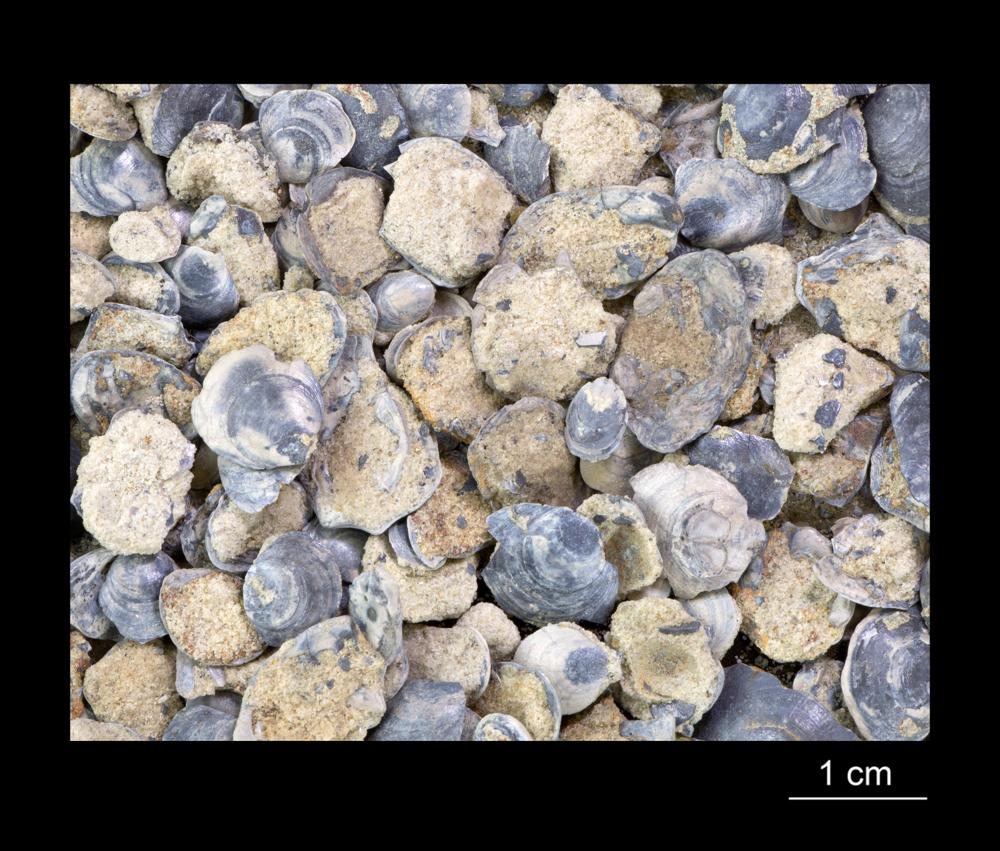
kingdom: Animalia
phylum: Brachiopoda
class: Lingulata
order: Lingulida
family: Obolidae
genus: Obolus
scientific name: Obolus
